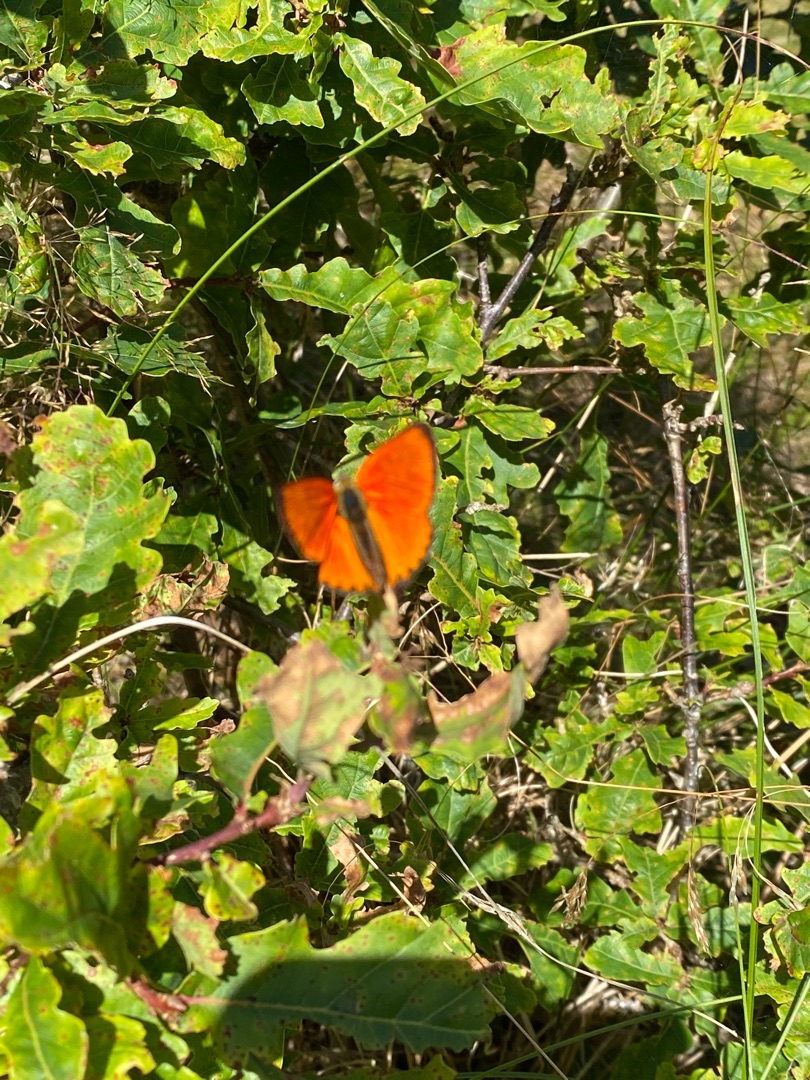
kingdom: Animalia
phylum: Arthropoda
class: Insecta
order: Lepidoptera
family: Lycaenidae
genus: Lycaena
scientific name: Lycaena virgaureae
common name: Dukatsommerfugl
